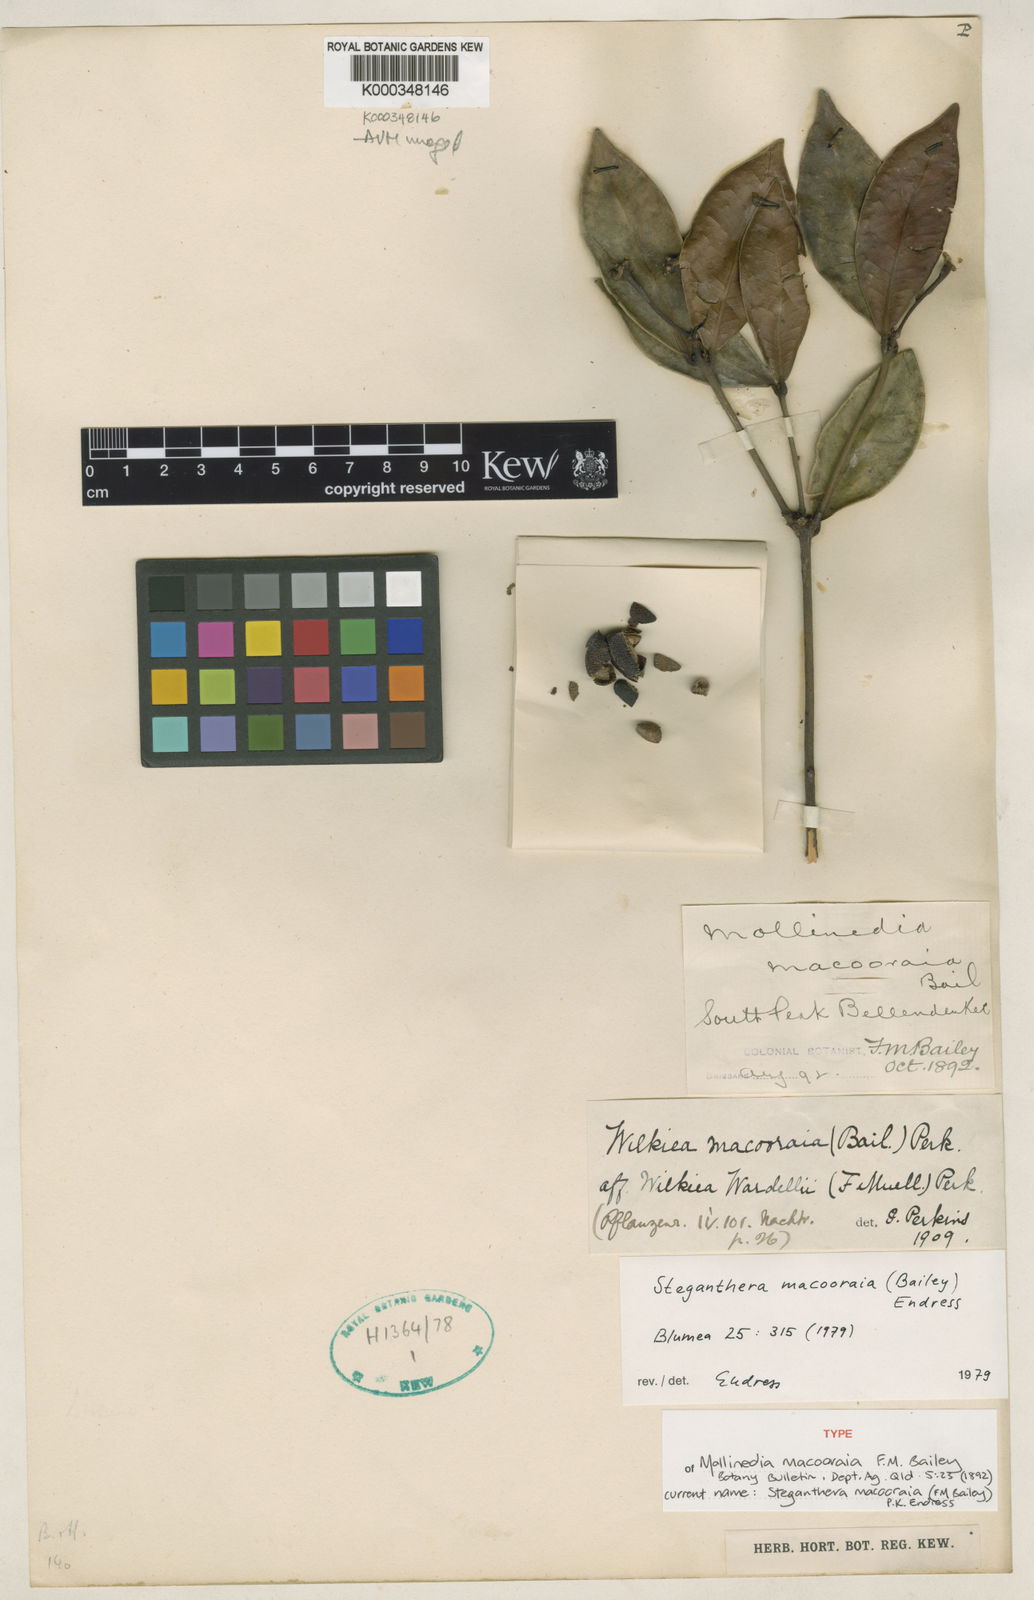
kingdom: Plantae
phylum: Tracheophyta
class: Magnoliopsida
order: Laurales
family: Monimiaceae
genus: Steganthera
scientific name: Steganthera macooraia
